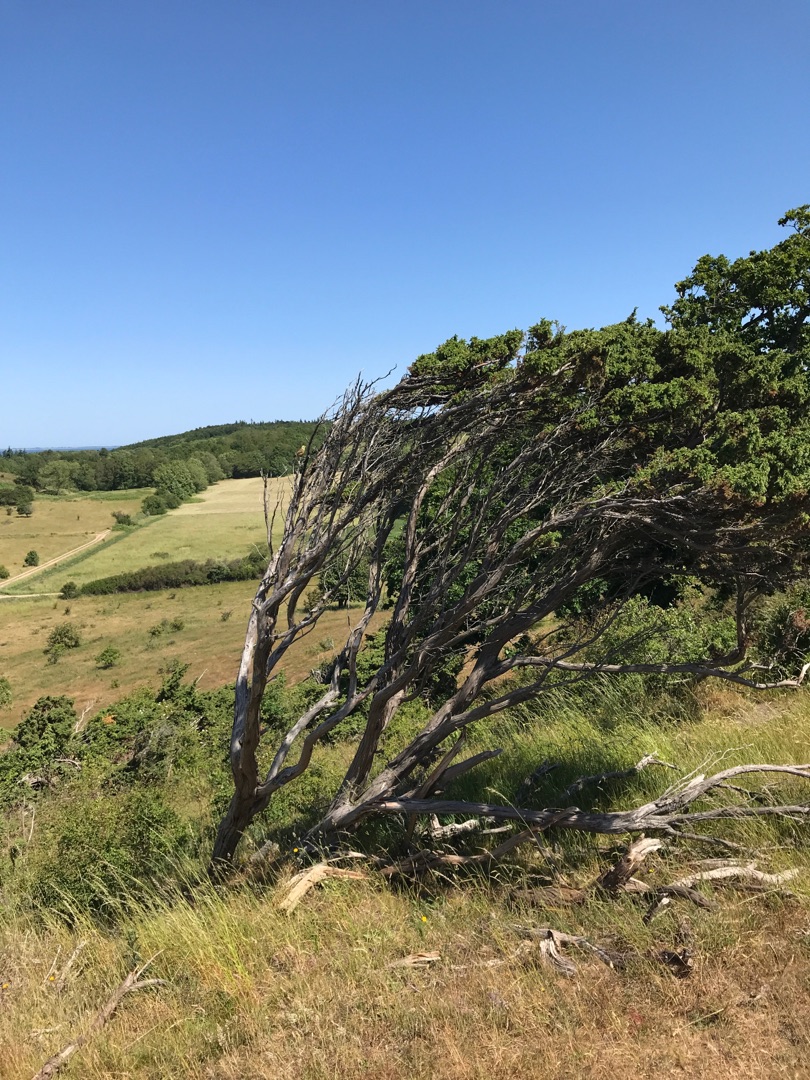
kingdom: Animalia
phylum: Chordata
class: Aves
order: Passeriformes
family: Emberizidae
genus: Emberiza
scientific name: Emberiza citrinella
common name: Gulspurv
